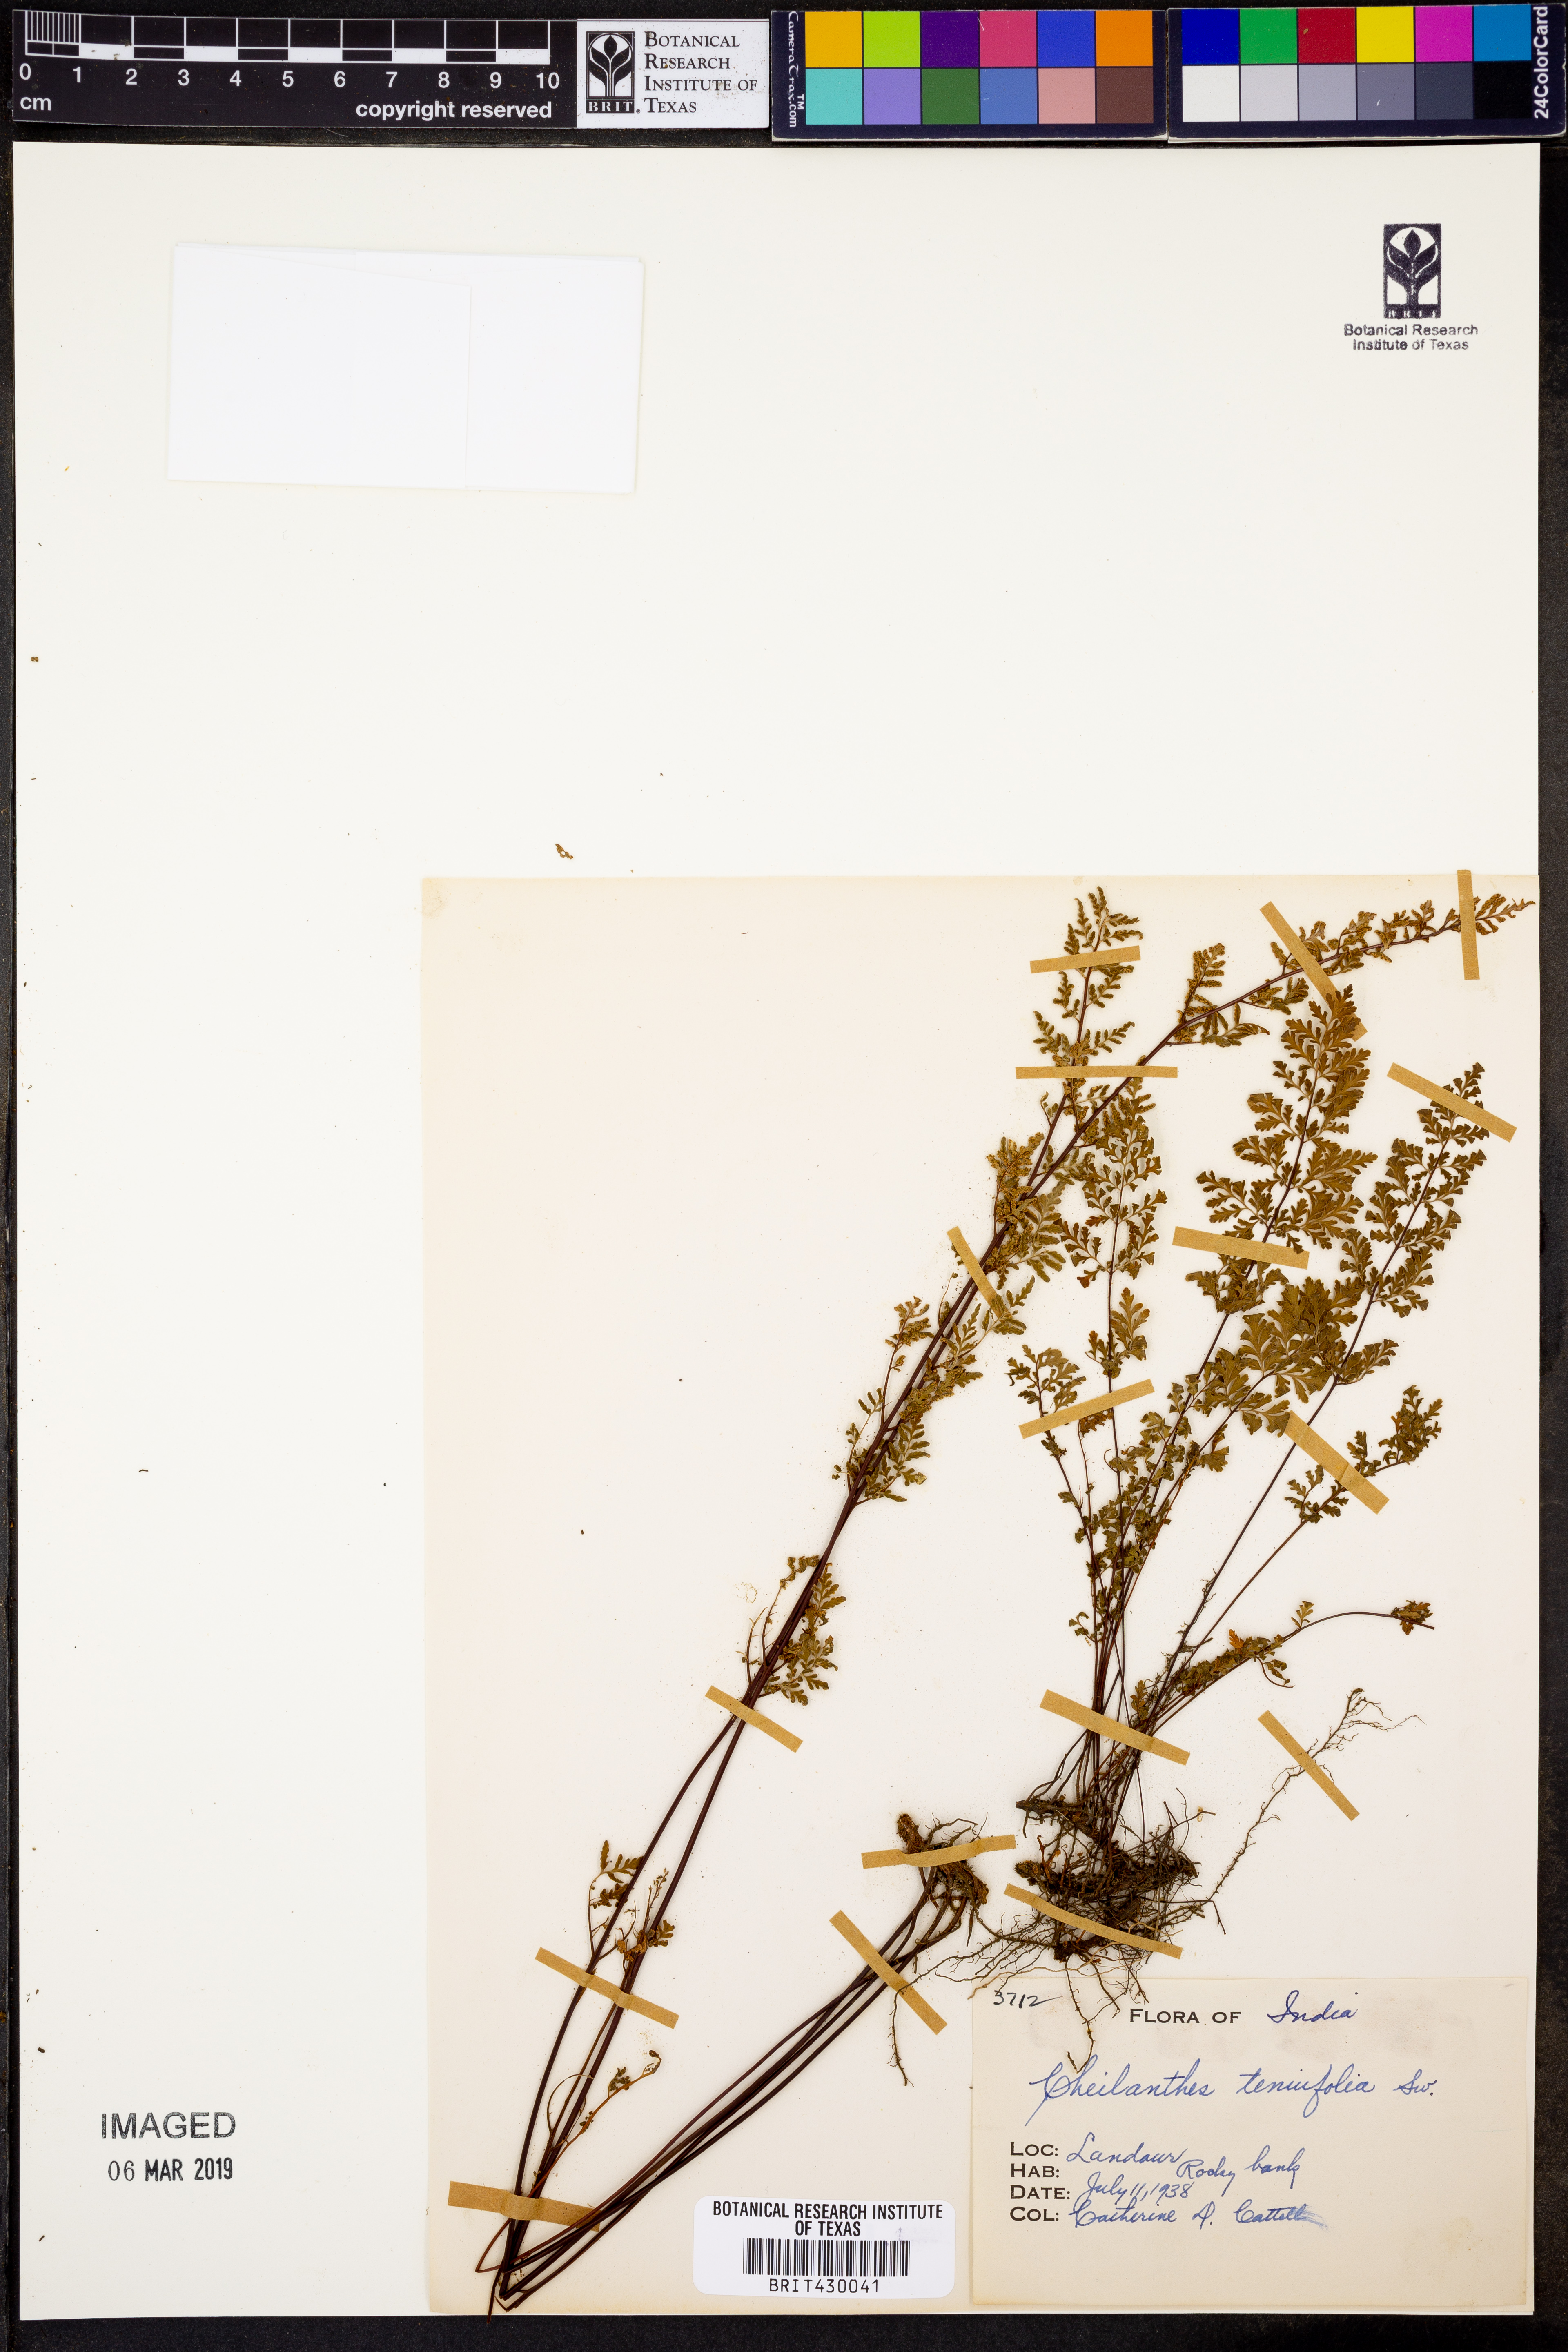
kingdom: Plantae
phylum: Tracheophyta
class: Polypodiopsida
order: Polypodiales
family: Pteridaceae
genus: Cheilanthes
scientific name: Cheilanthes tenuifolia
